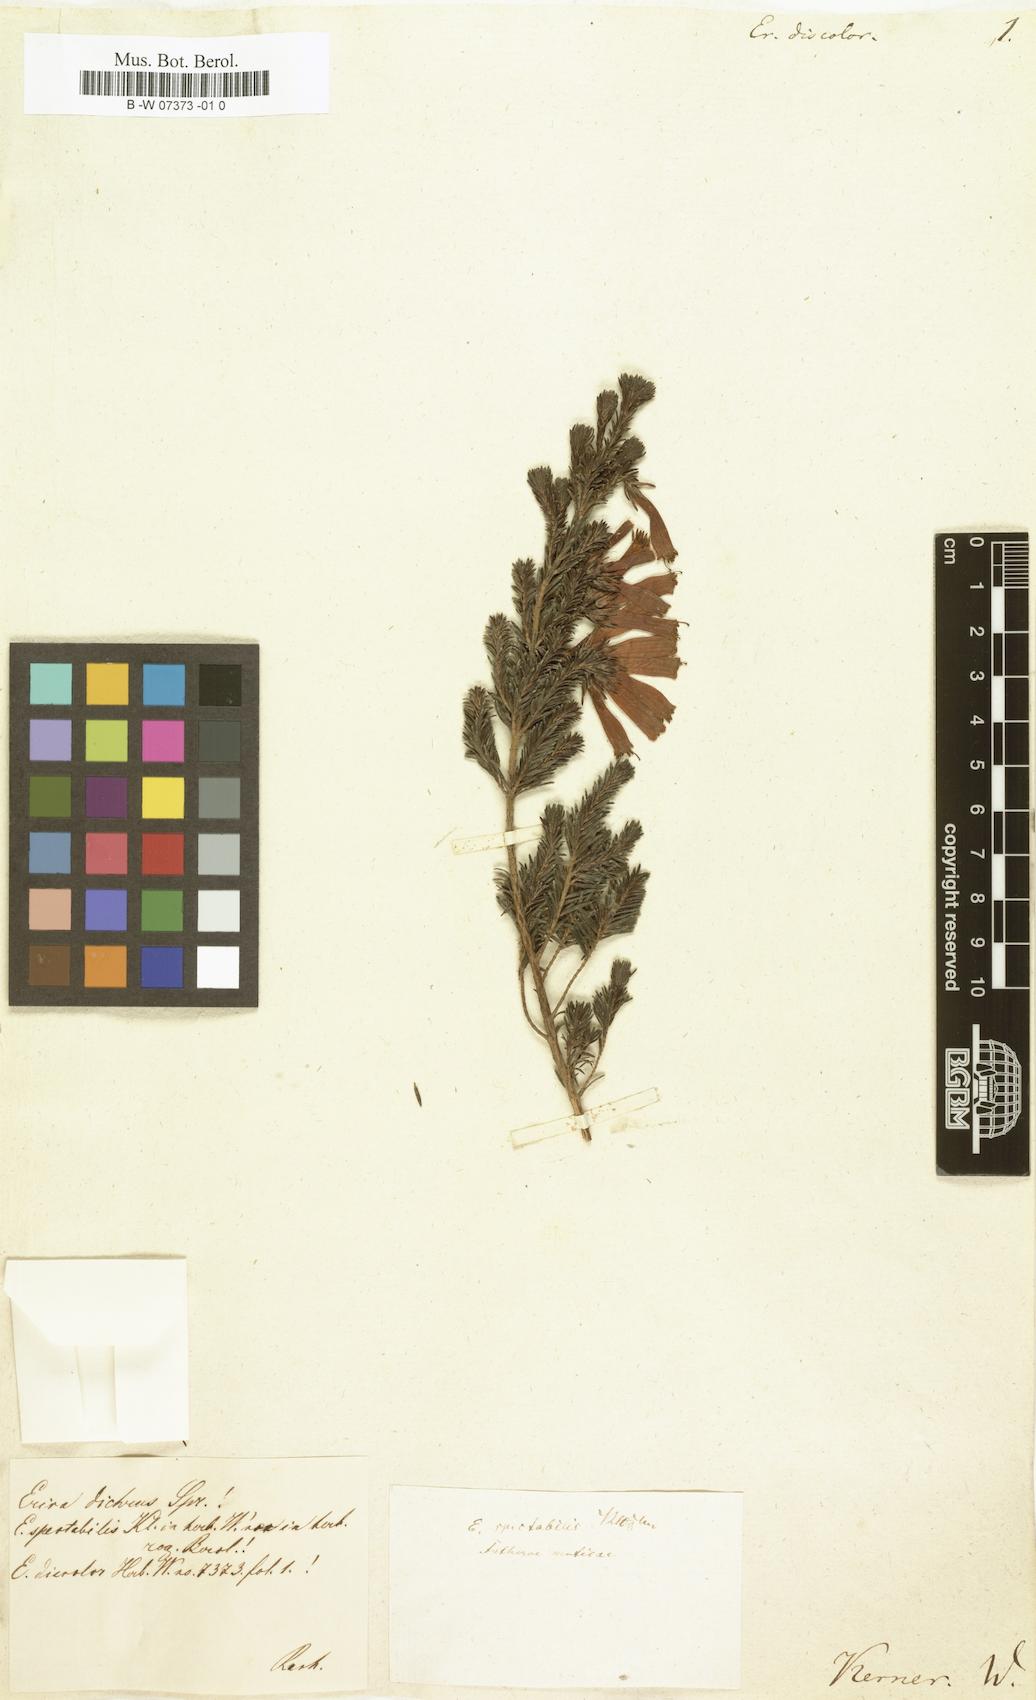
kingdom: Plantae
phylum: Tracheophyta
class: Magnoliopsida
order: Ericales
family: Ericaceae
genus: Erica
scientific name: Erica discolor
